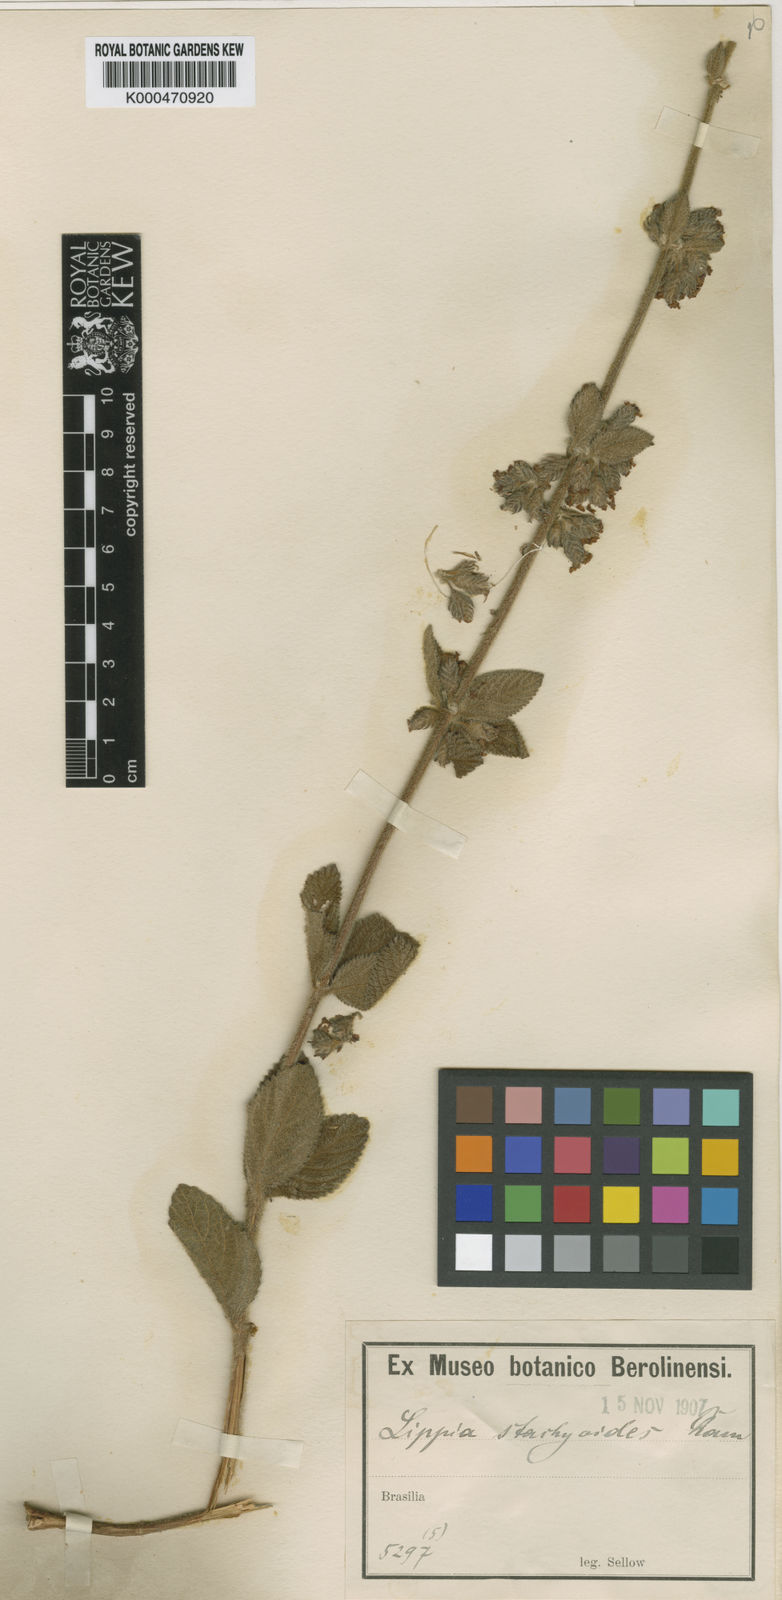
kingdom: Plantae
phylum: Tracheophyta
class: Magnoliopsida
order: Lamiales
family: Verbenaceae
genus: Lippia
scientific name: Lippia stachyoides
